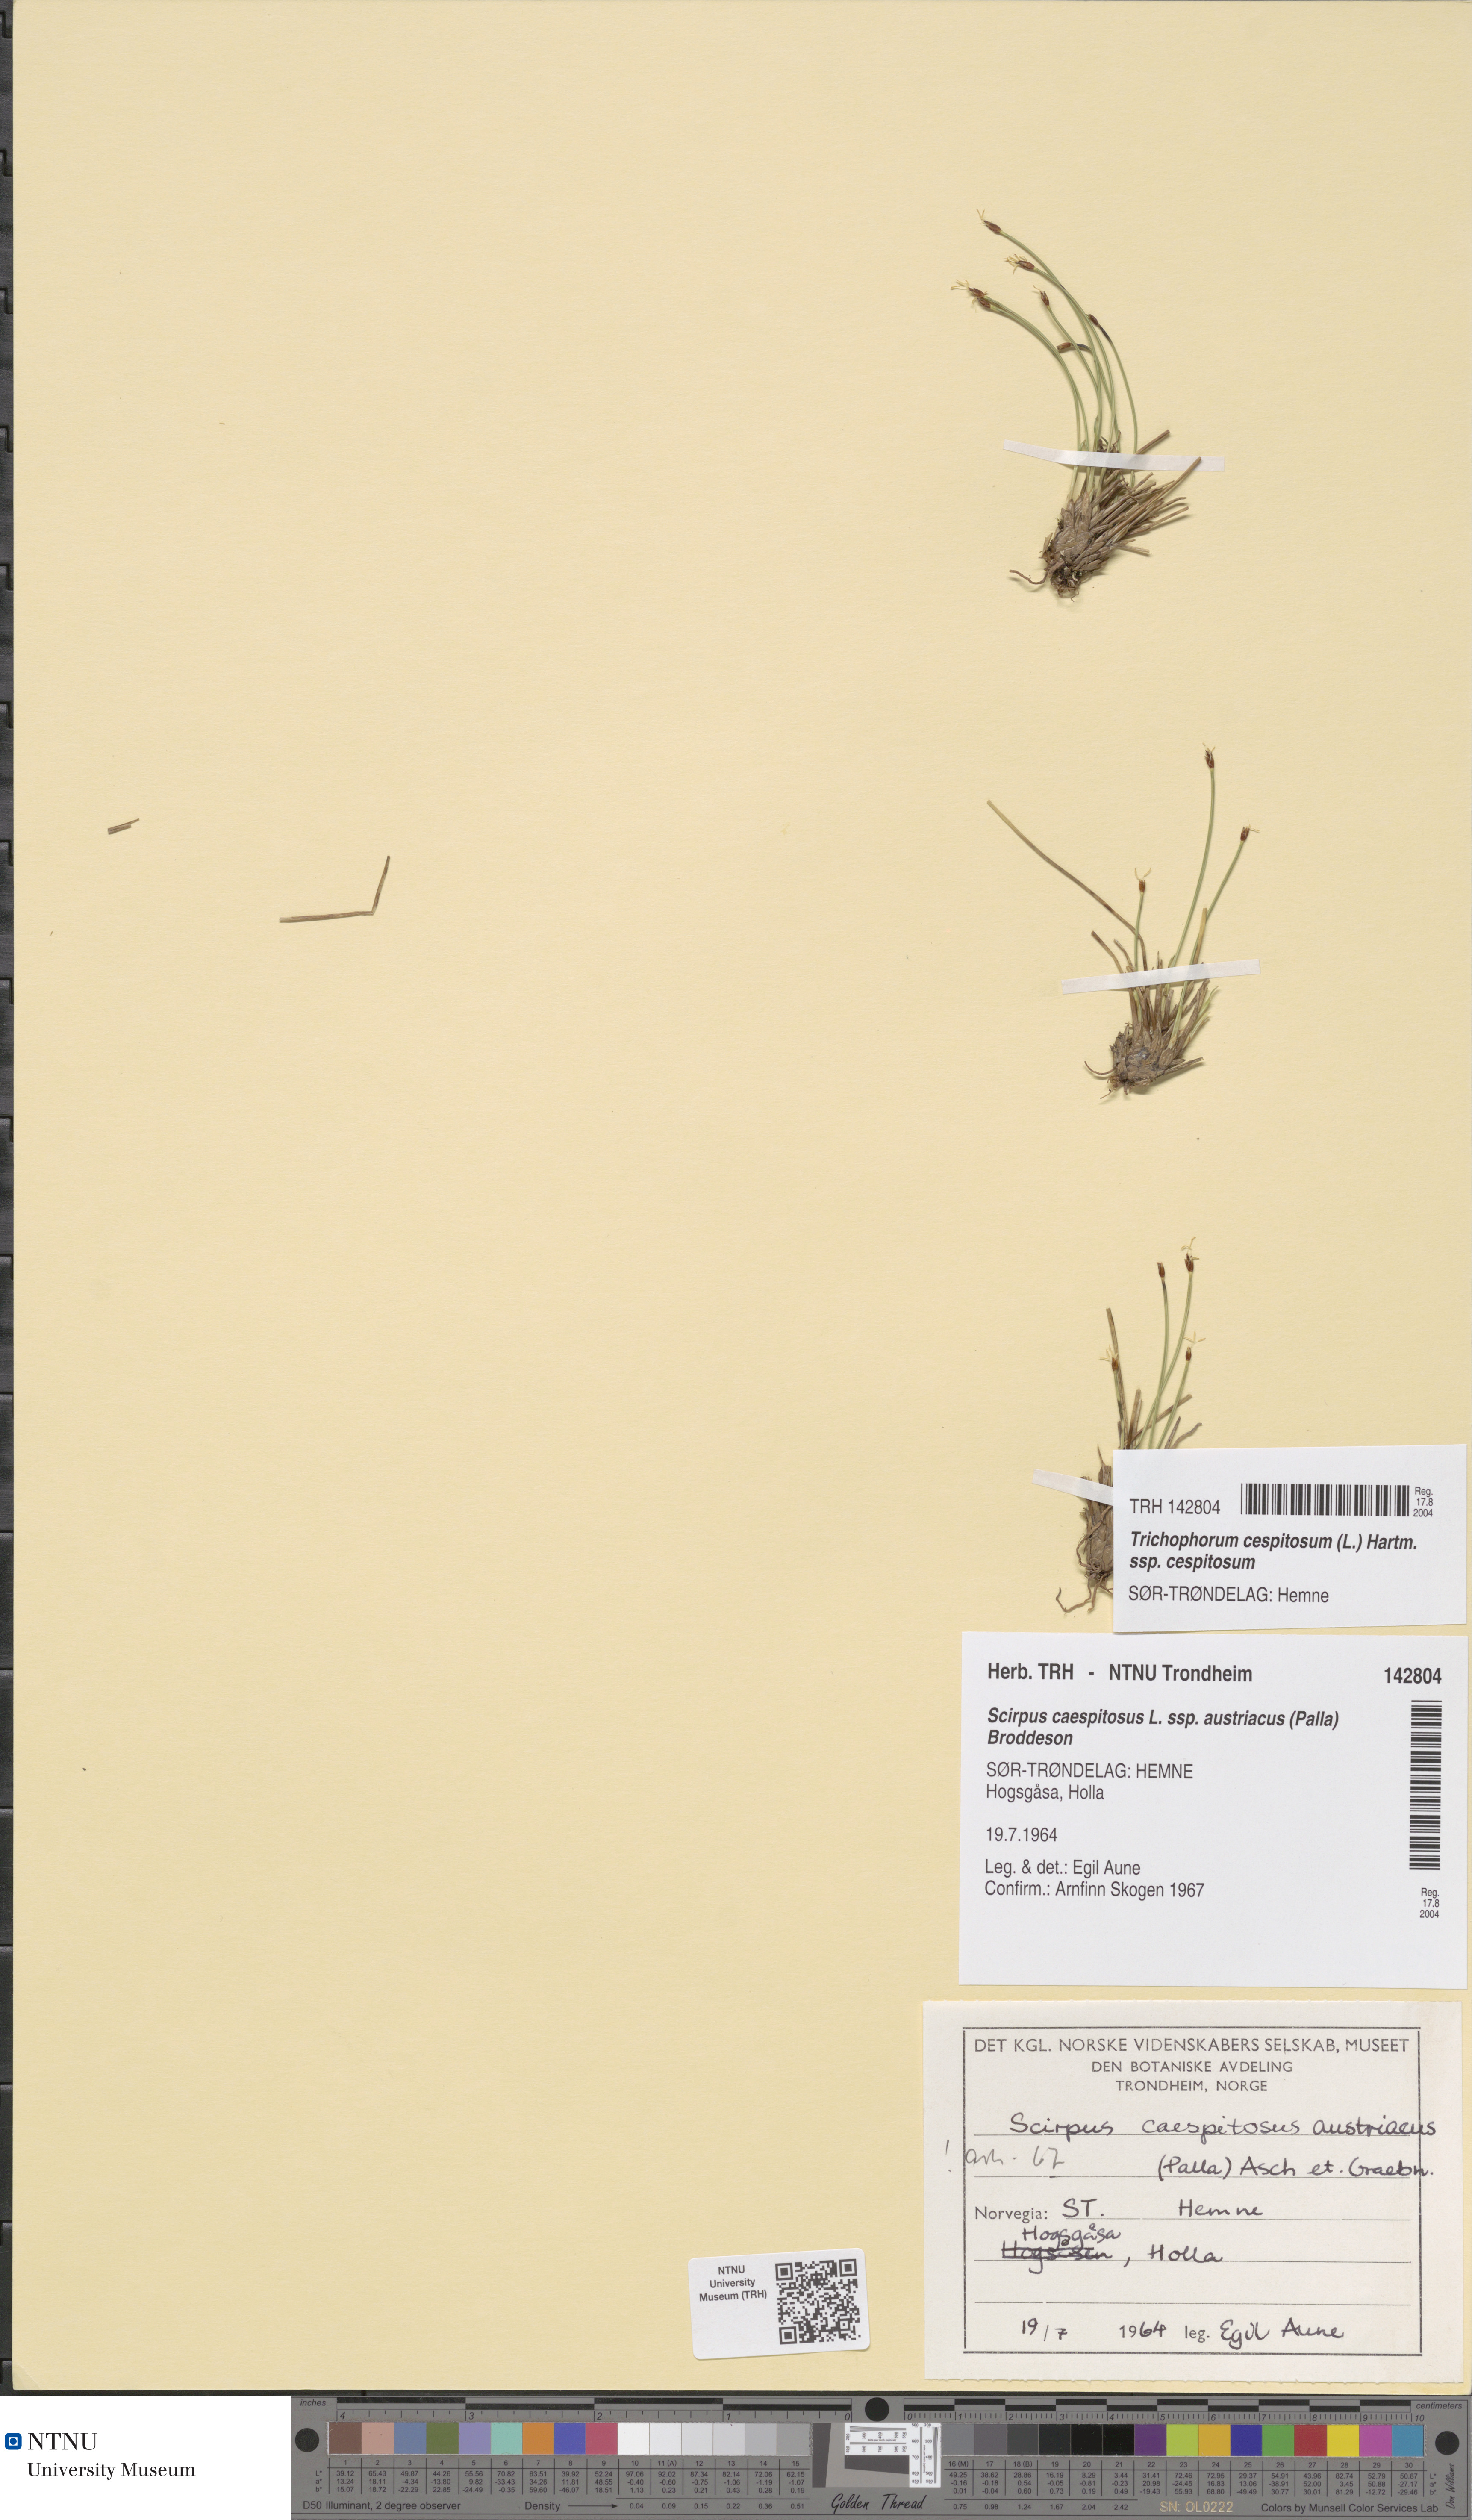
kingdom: Plantae
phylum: Tracheophyta
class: Liliopsida
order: Poales
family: Cyperaceae
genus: Trichophorum
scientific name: Trichophorum cespitosum
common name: Cespitose bulrush
